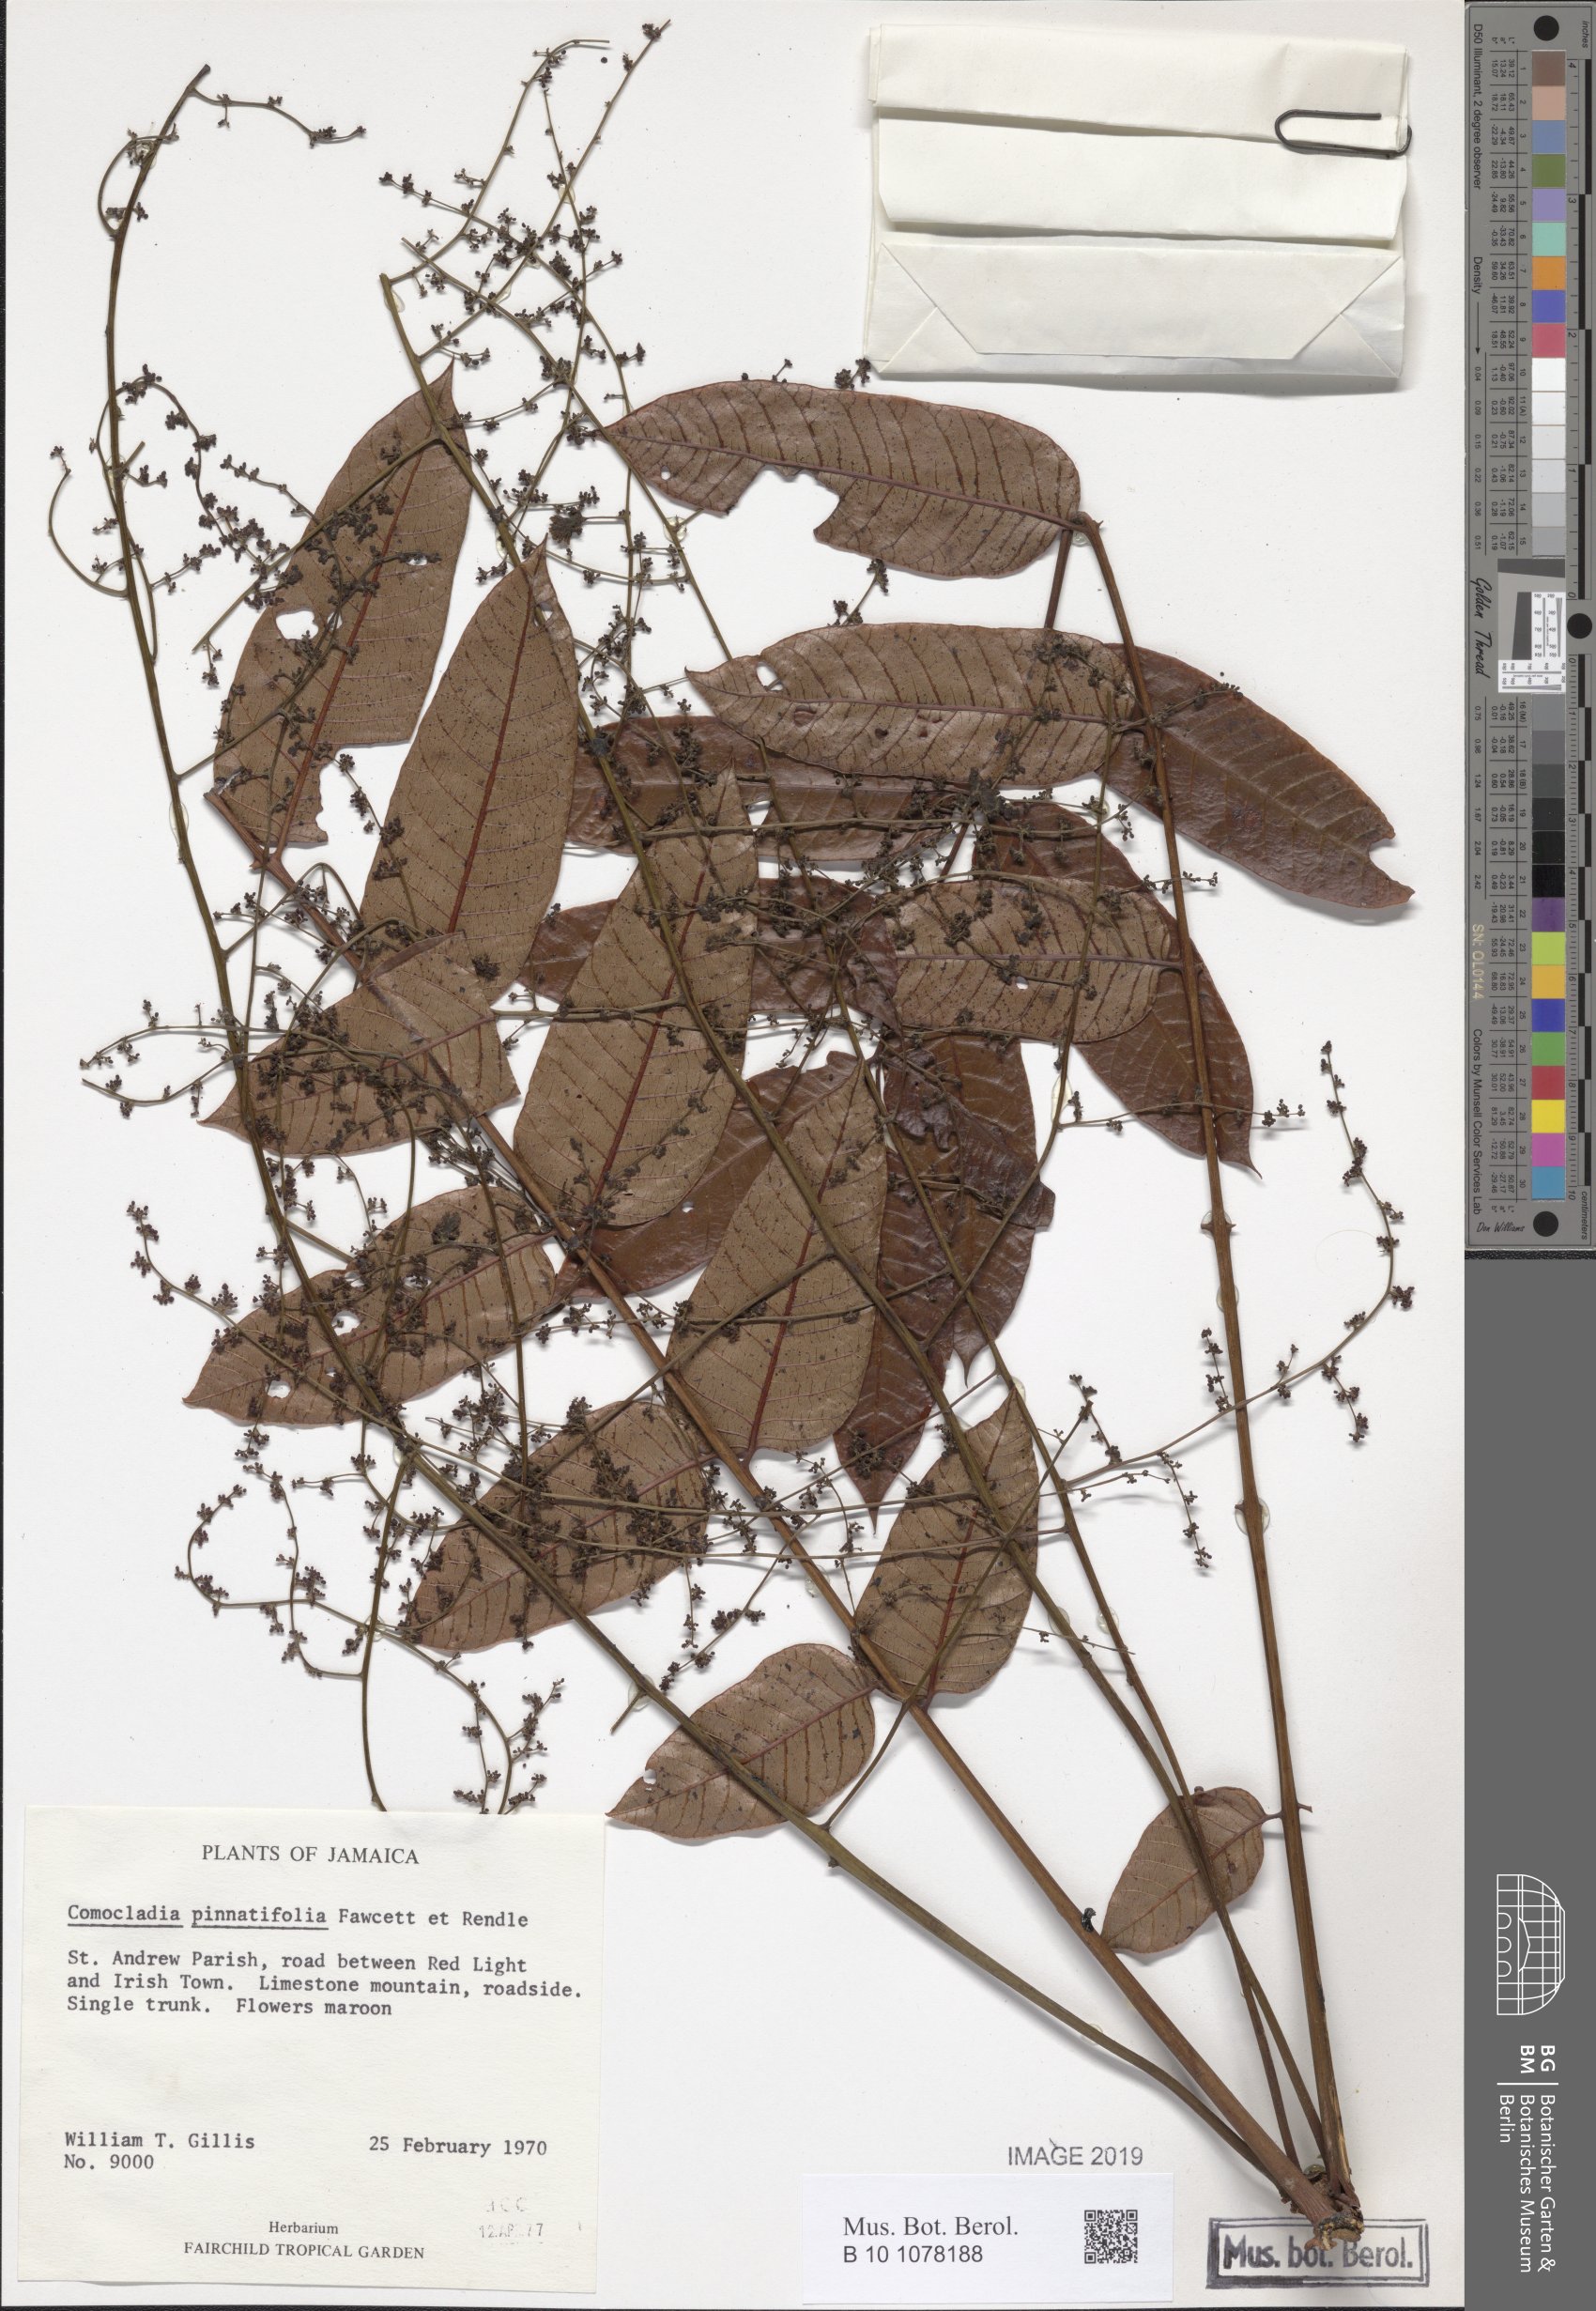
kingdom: Plantae
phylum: Tracheophyta
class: Magnoliopsida
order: Sapindales
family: Anacardiaceae
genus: Comocladia
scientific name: Comocladia pinnatifolia
